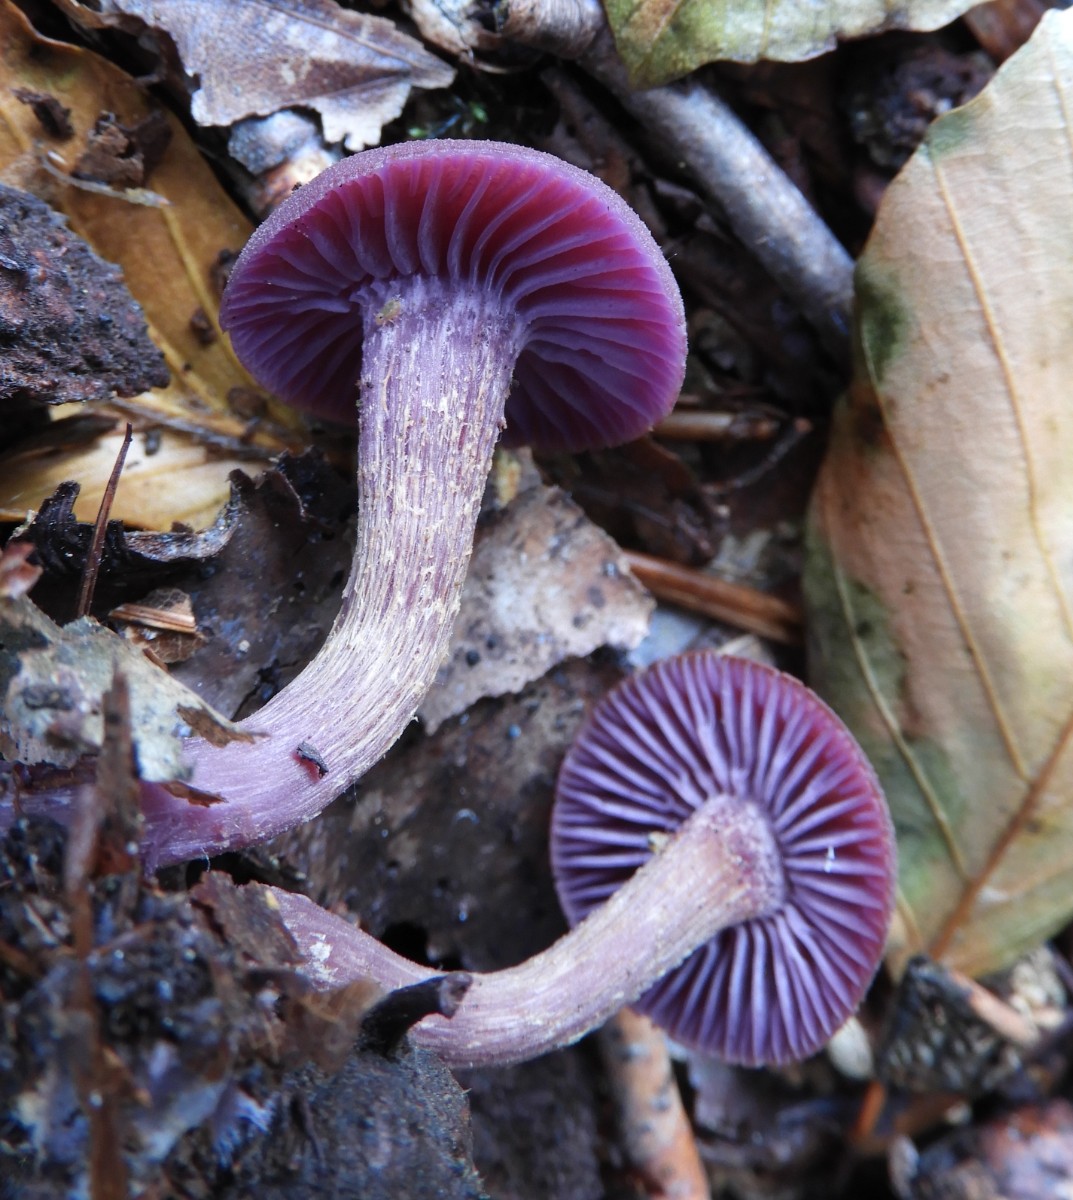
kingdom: Fungi
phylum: Basidiomycota
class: Agaricomycetes
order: Agaricales
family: Hydnangiaceae
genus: Laccaria
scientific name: Laccaria amethystina
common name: violet ametysthat
